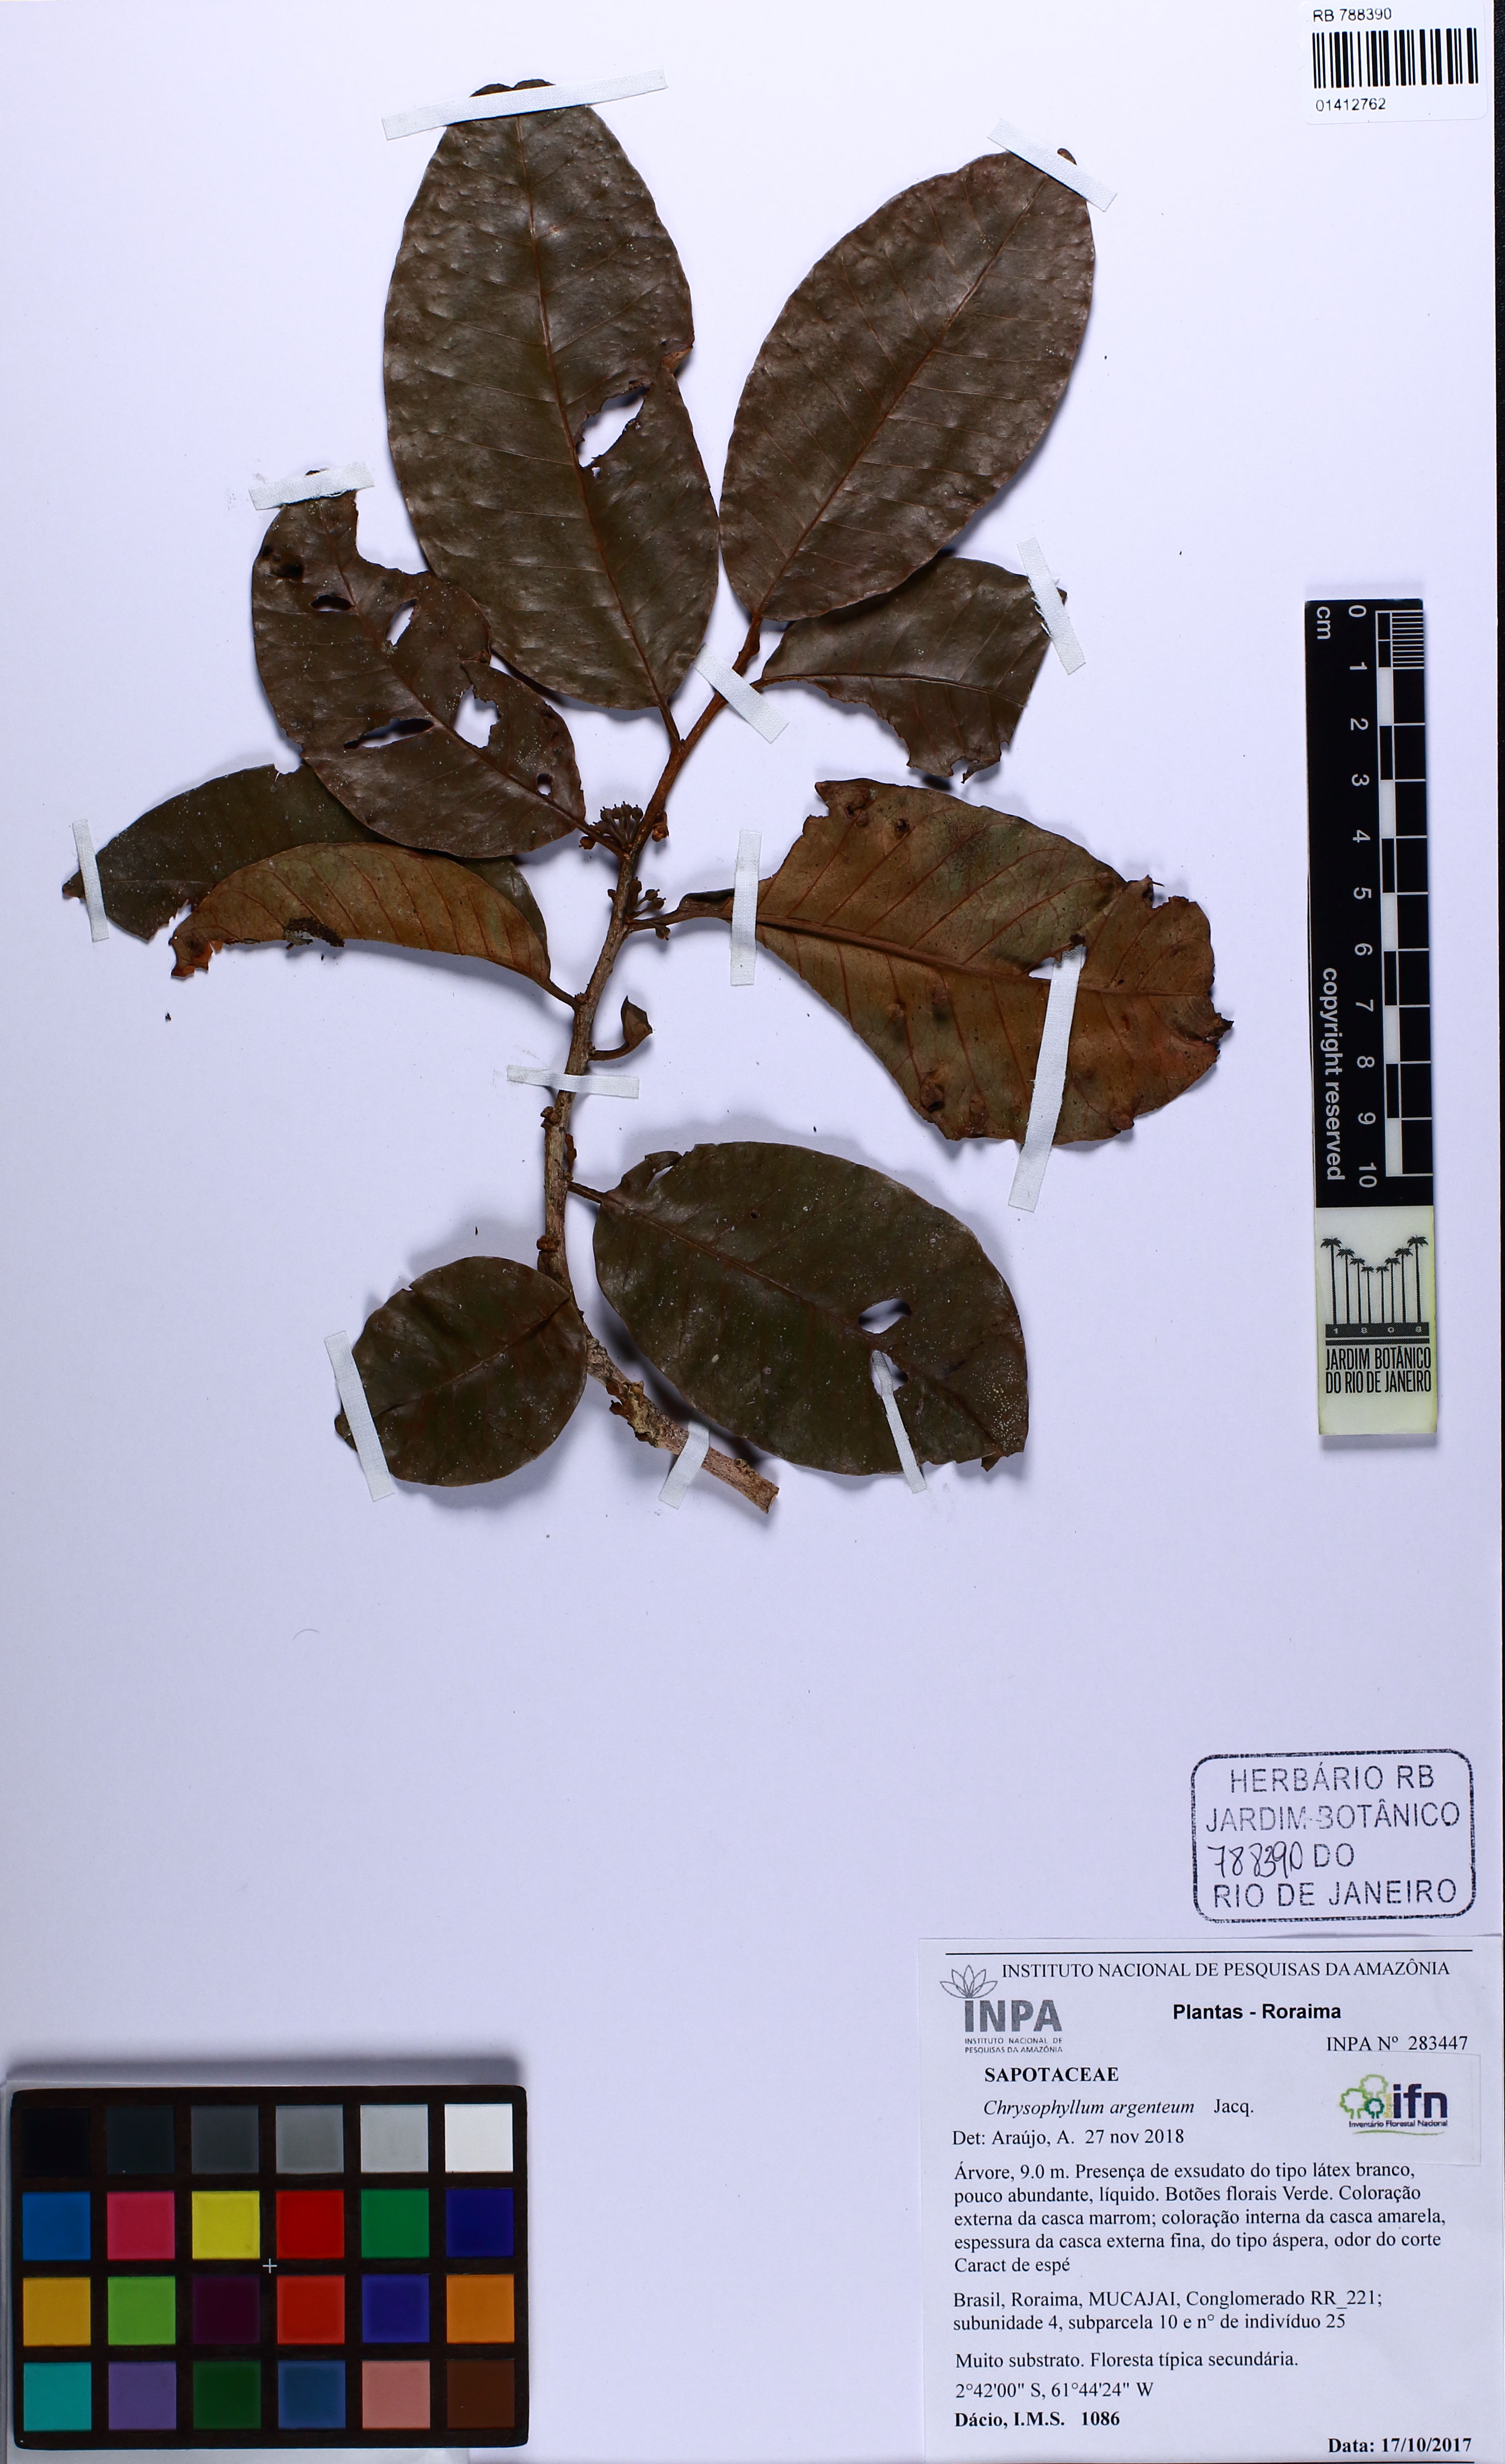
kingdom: Plantae
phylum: Tracheophyta
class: Magnoliopsida
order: Ericales
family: Sapotaceae
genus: Chrysophyllum
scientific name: Chrysophyllum argenteum
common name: Smooth star apple
